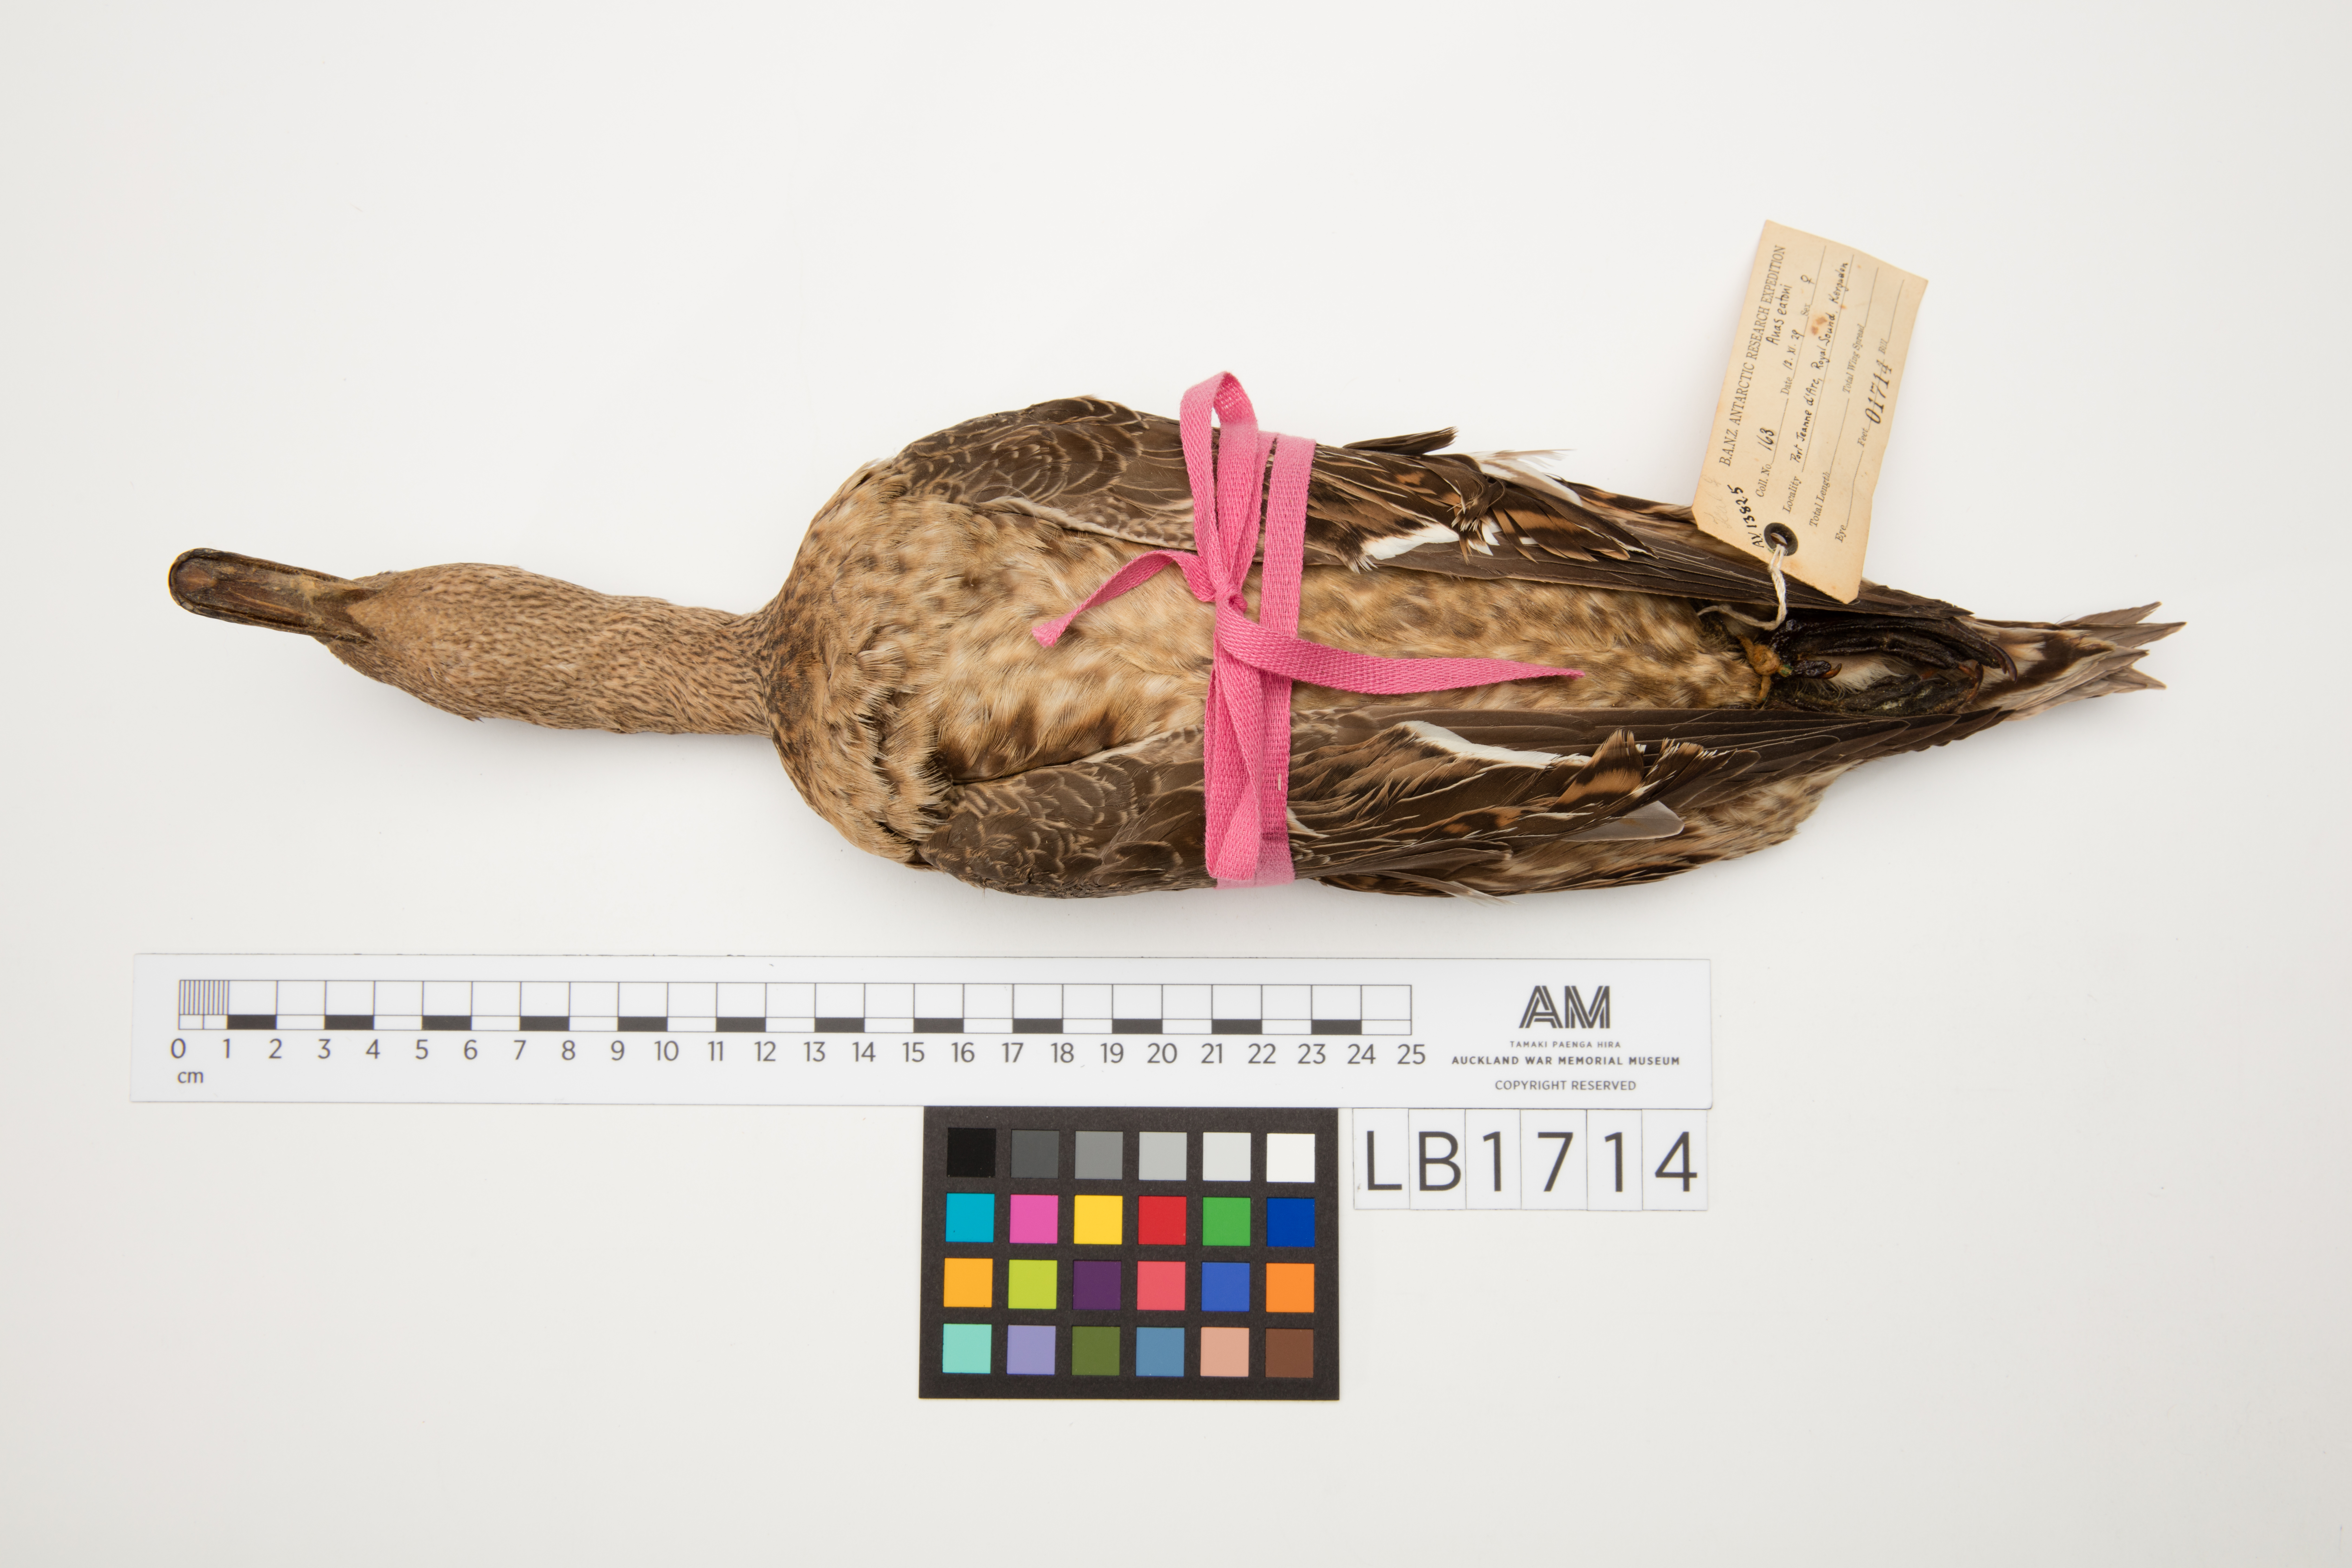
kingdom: Animalia
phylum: Chordata
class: Aves
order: Anseriformes
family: Anatidae
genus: Anas
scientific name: Anas eatoni
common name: Eaton's pintail
